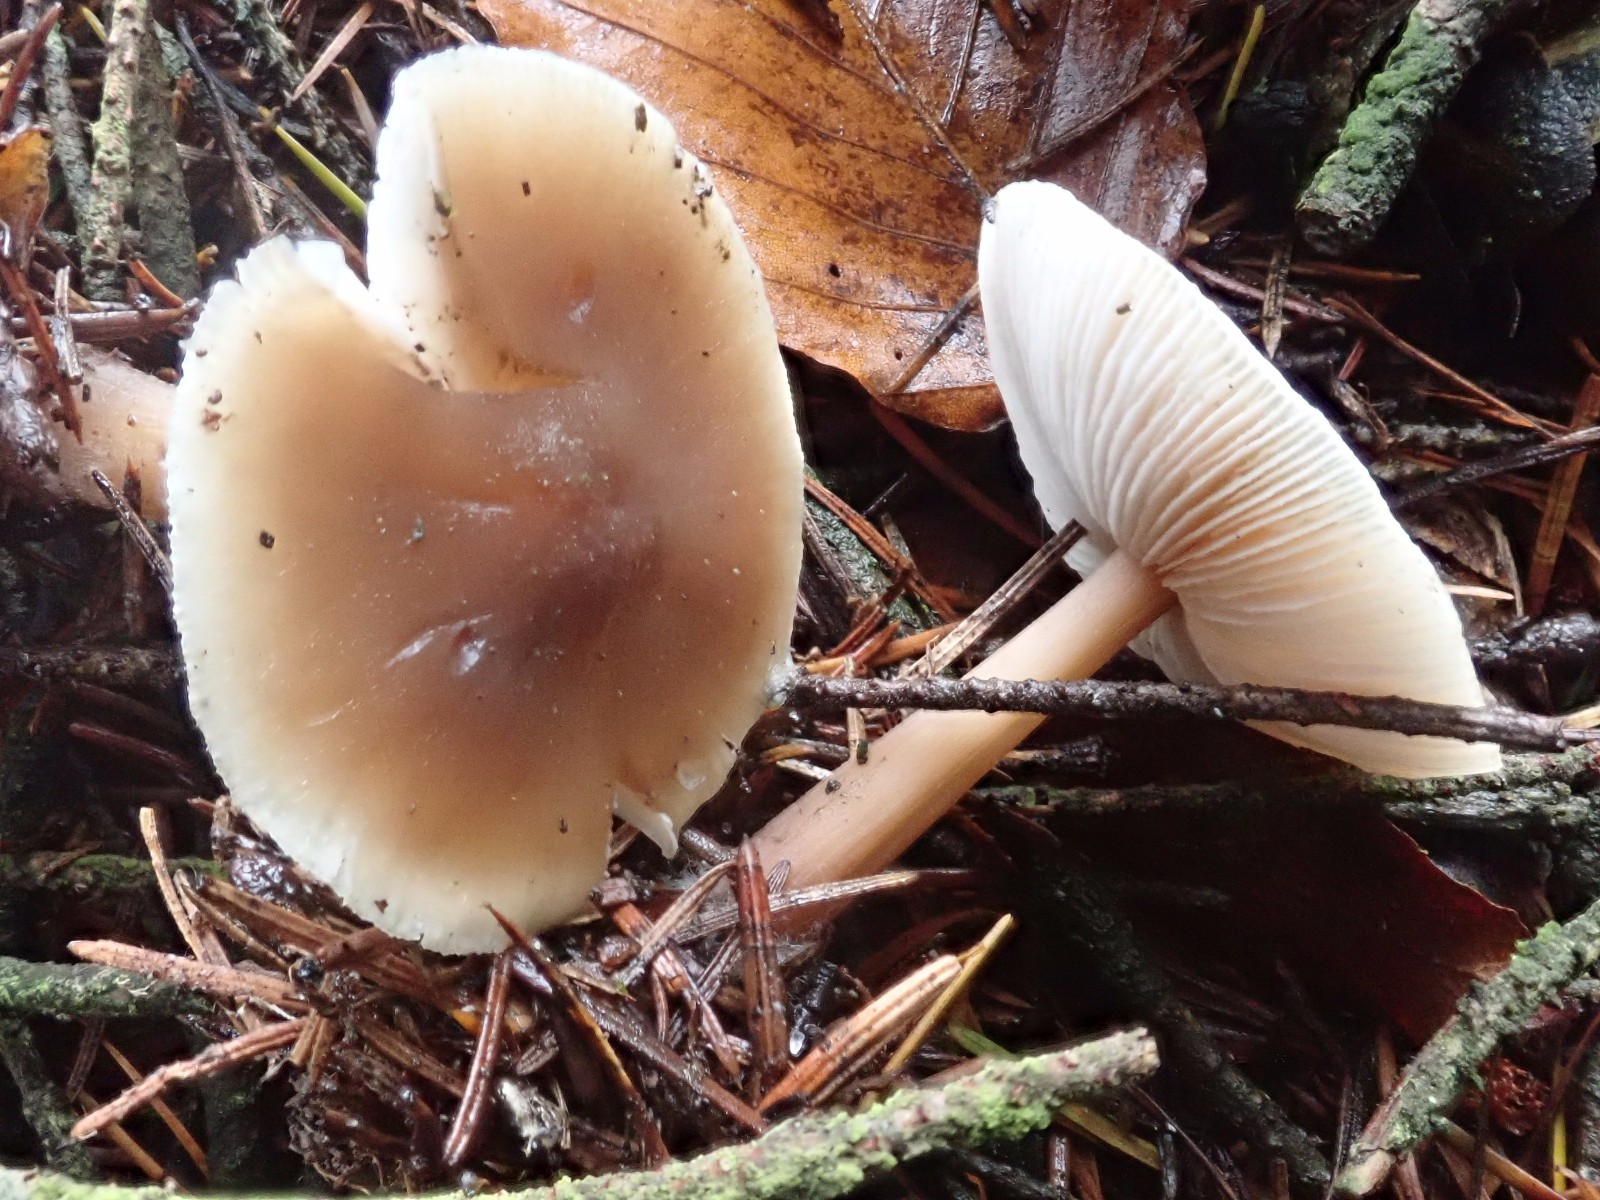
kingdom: Fungi
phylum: Basidiomycota
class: Agaricomycetes
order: Agaricales
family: Omphalotaceae
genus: Rhodocollybia
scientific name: Rhodocollybia asema
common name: horngrå fladhat
